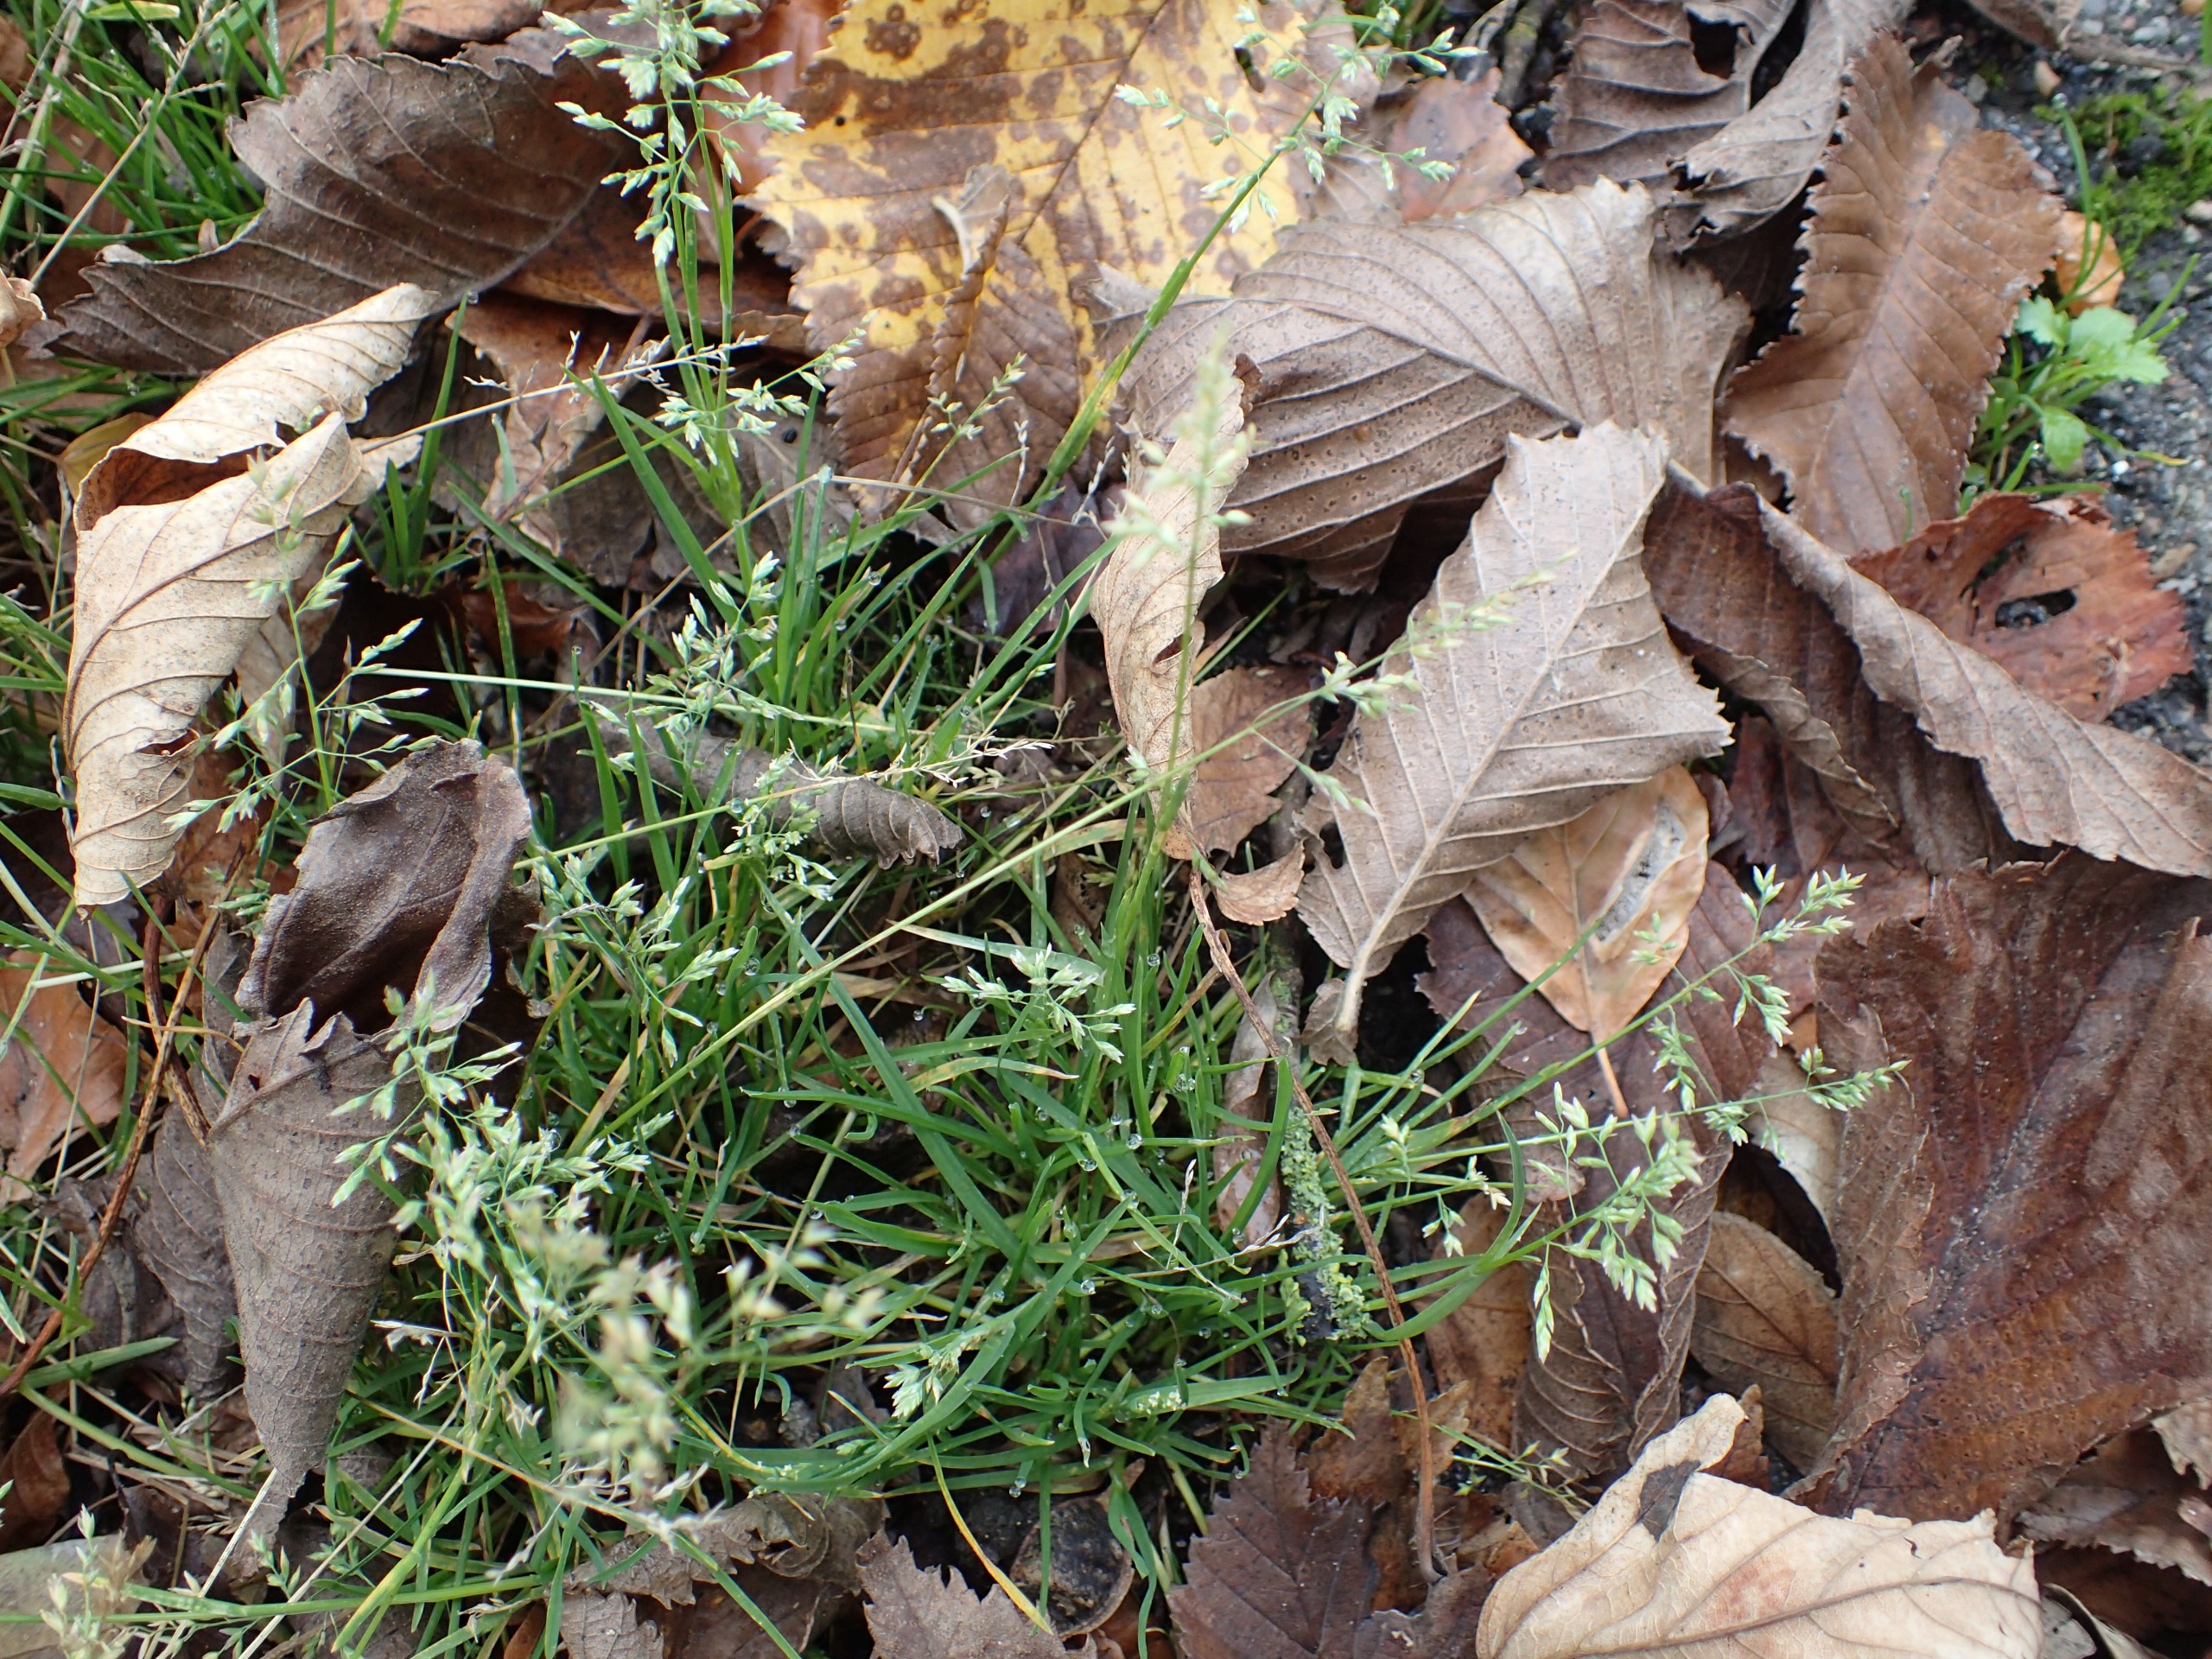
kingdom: Plantae
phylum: Tracheophyta
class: Liliopsida
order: Poales
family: Poaceae
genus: Poa
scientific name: Poa annua
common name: Enårig rapgræs
